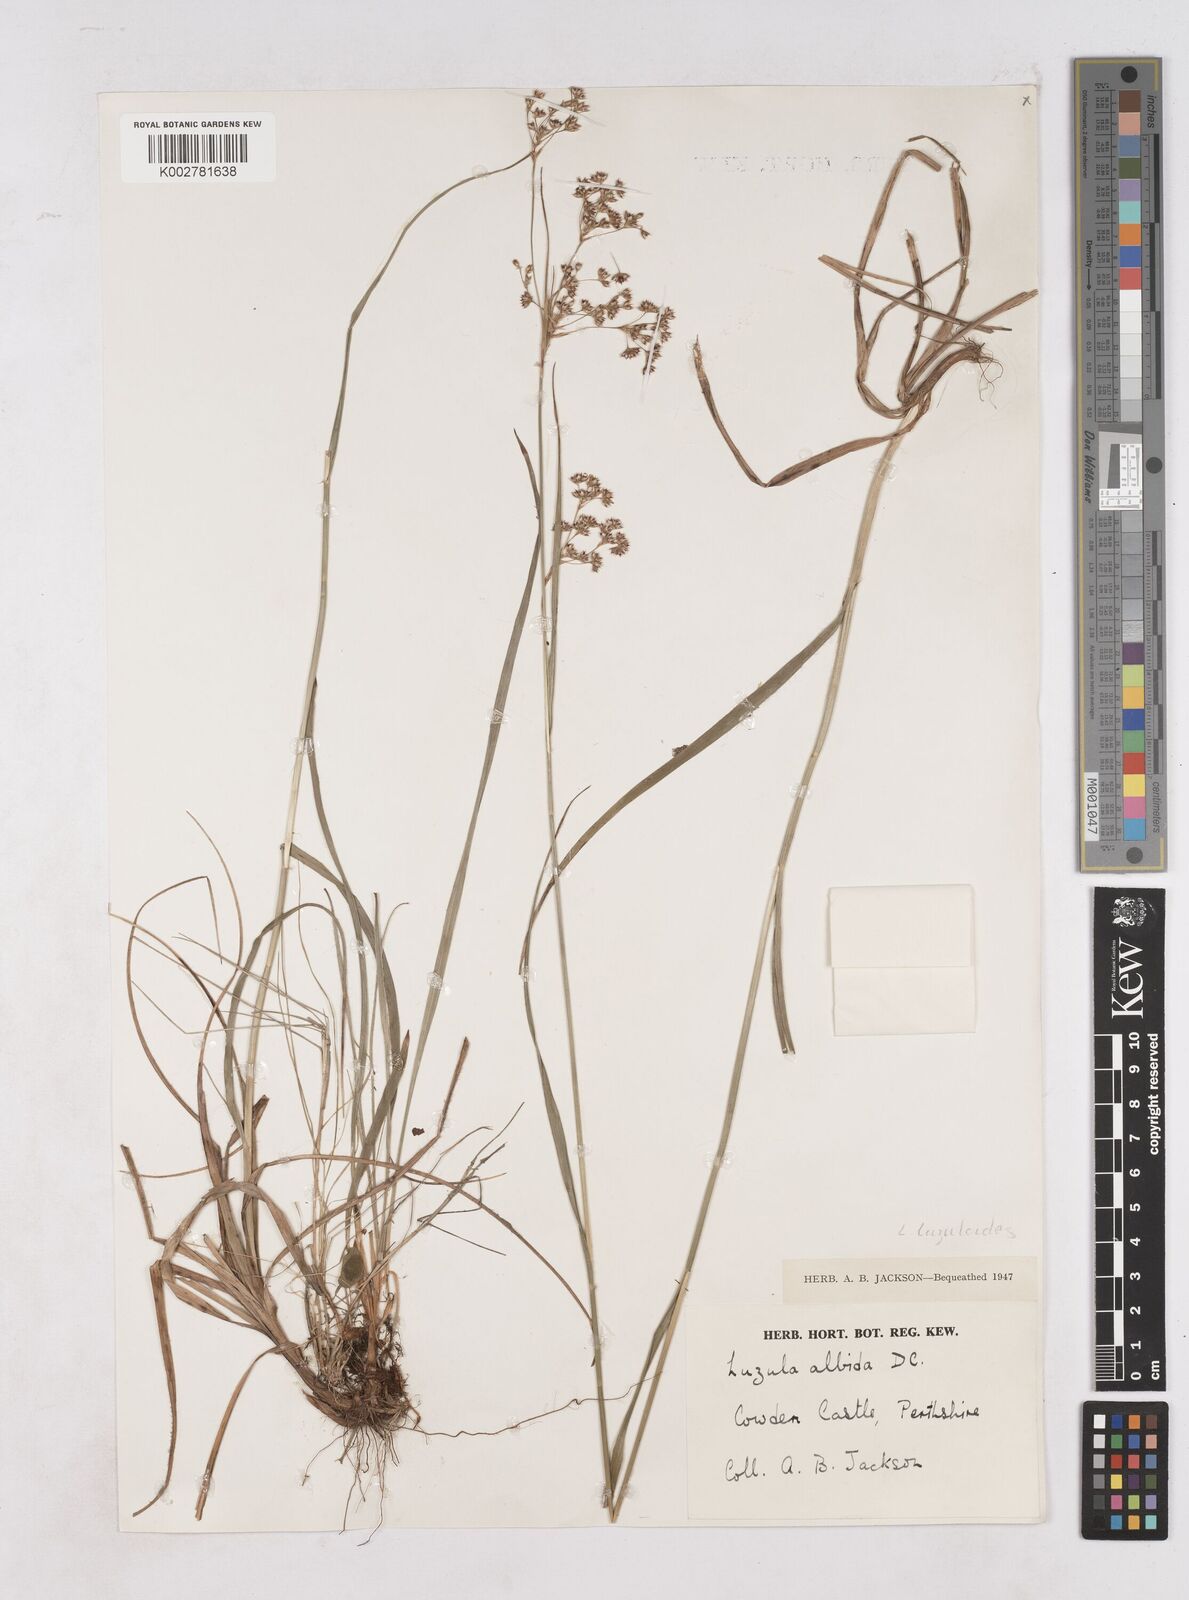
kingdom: Plantae
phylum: Tracheophyta
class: Liliopsida
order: Poales
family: Juncaceae
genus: Luzula
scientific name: Luzula luzuloides
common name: White wood-rush
